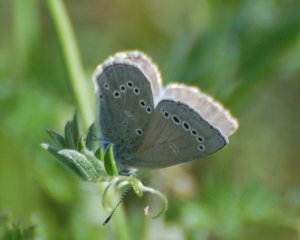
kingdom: Animalia
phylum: Arthropoda
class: Insecta
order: Lepidoptera
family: Lycaenidae
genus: Glaucopsyche
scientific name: Glaucopsyche lygdamus
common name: Silvery Blue
